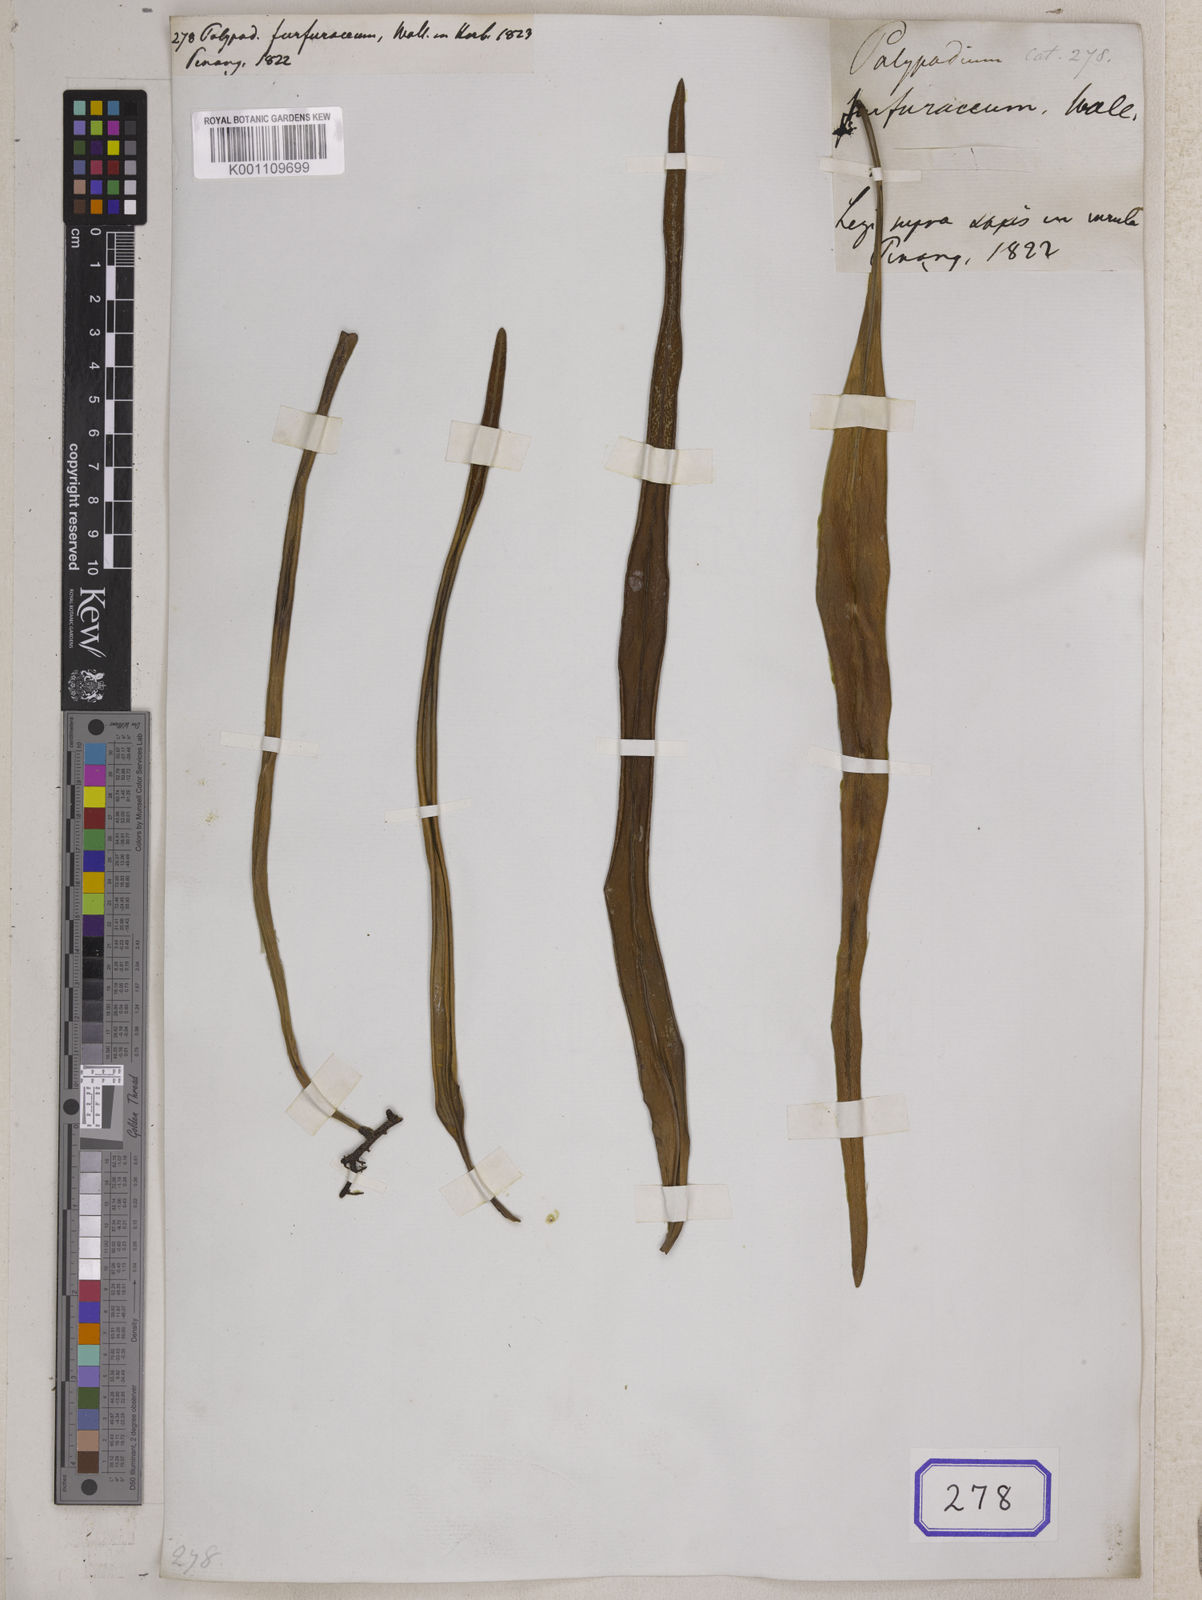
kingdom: Plantae
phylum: Tracheophyta
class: Polypodiopsida
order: Polypodiales
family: Polypodiaceae
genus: Pyrrosia
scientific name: Pyrrosia longifolia
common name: Long-leaved felt fern
